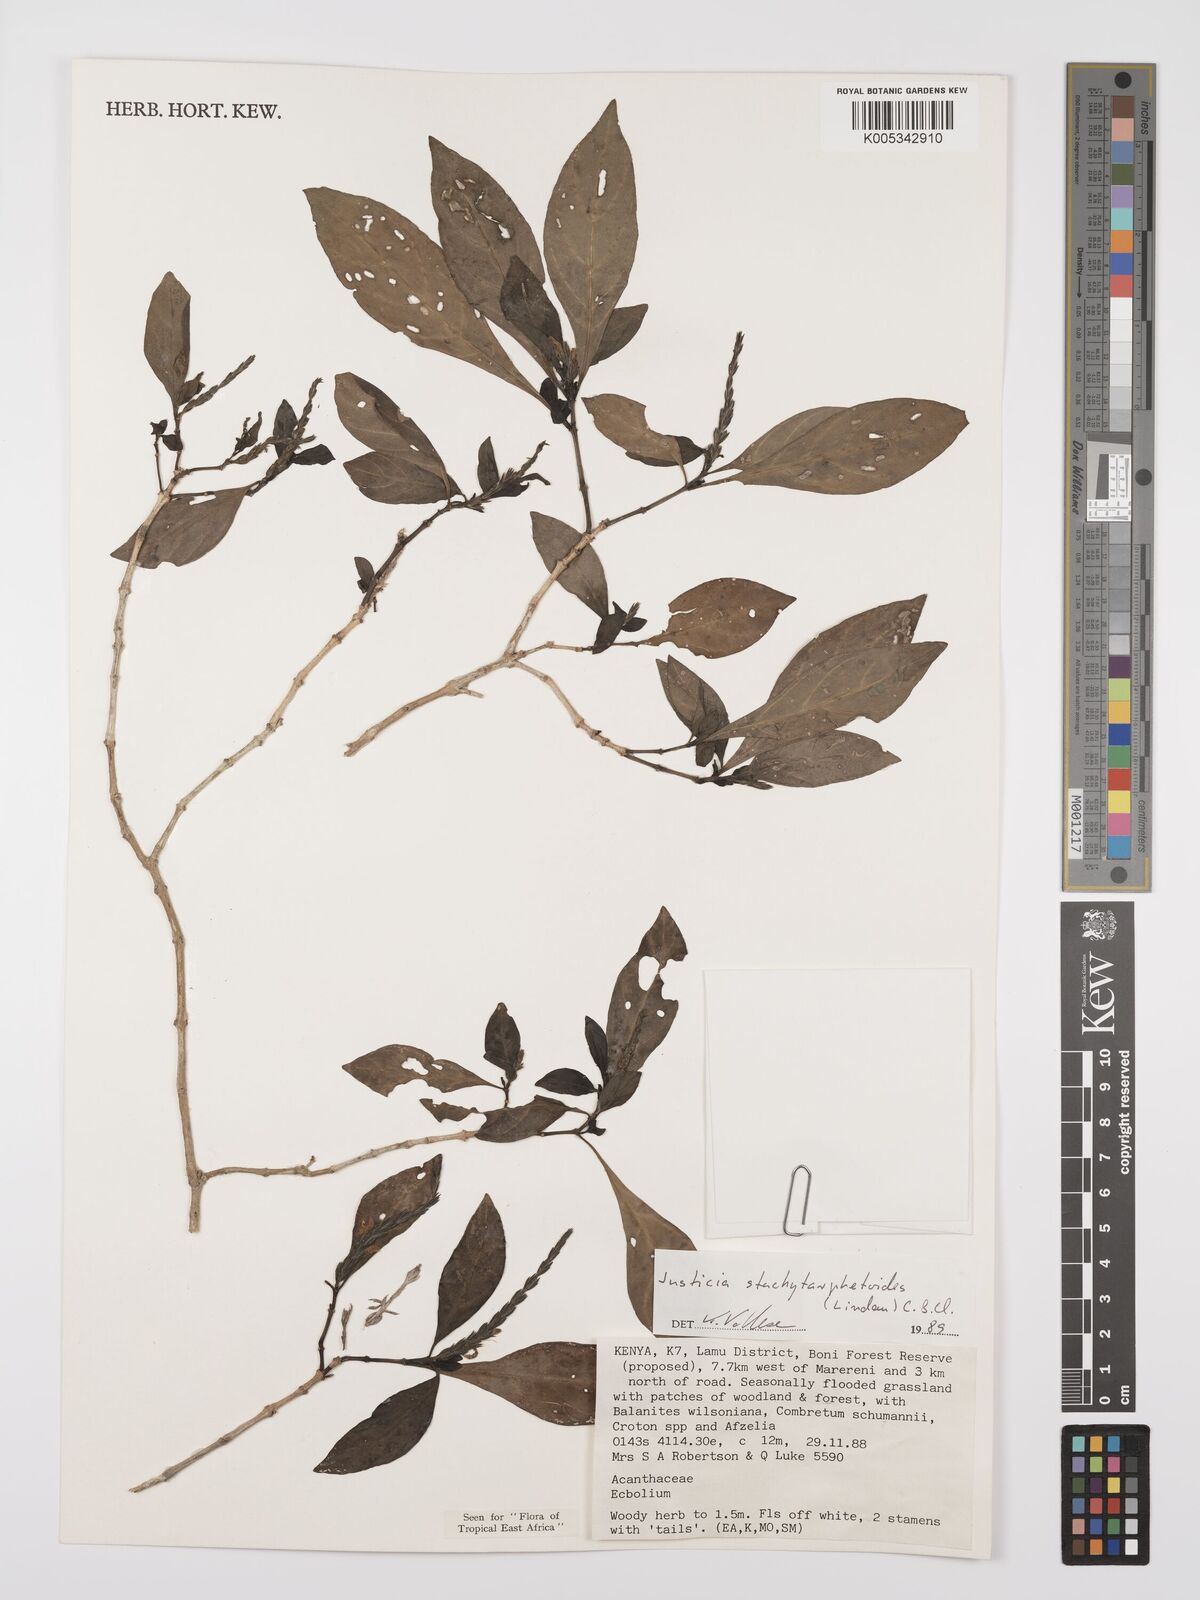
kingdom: Plantae
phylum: Tracheophyta
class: Magnoliopsida
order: Lamiales
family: Acanthaceae
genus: Justicia
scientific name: Justicia stachytarphetoides
